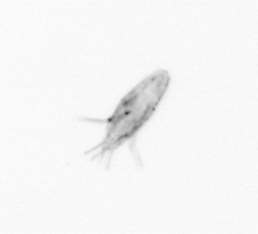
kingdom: Animalia
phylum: Arthropoda
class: Copepoda
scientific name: Copepoda
